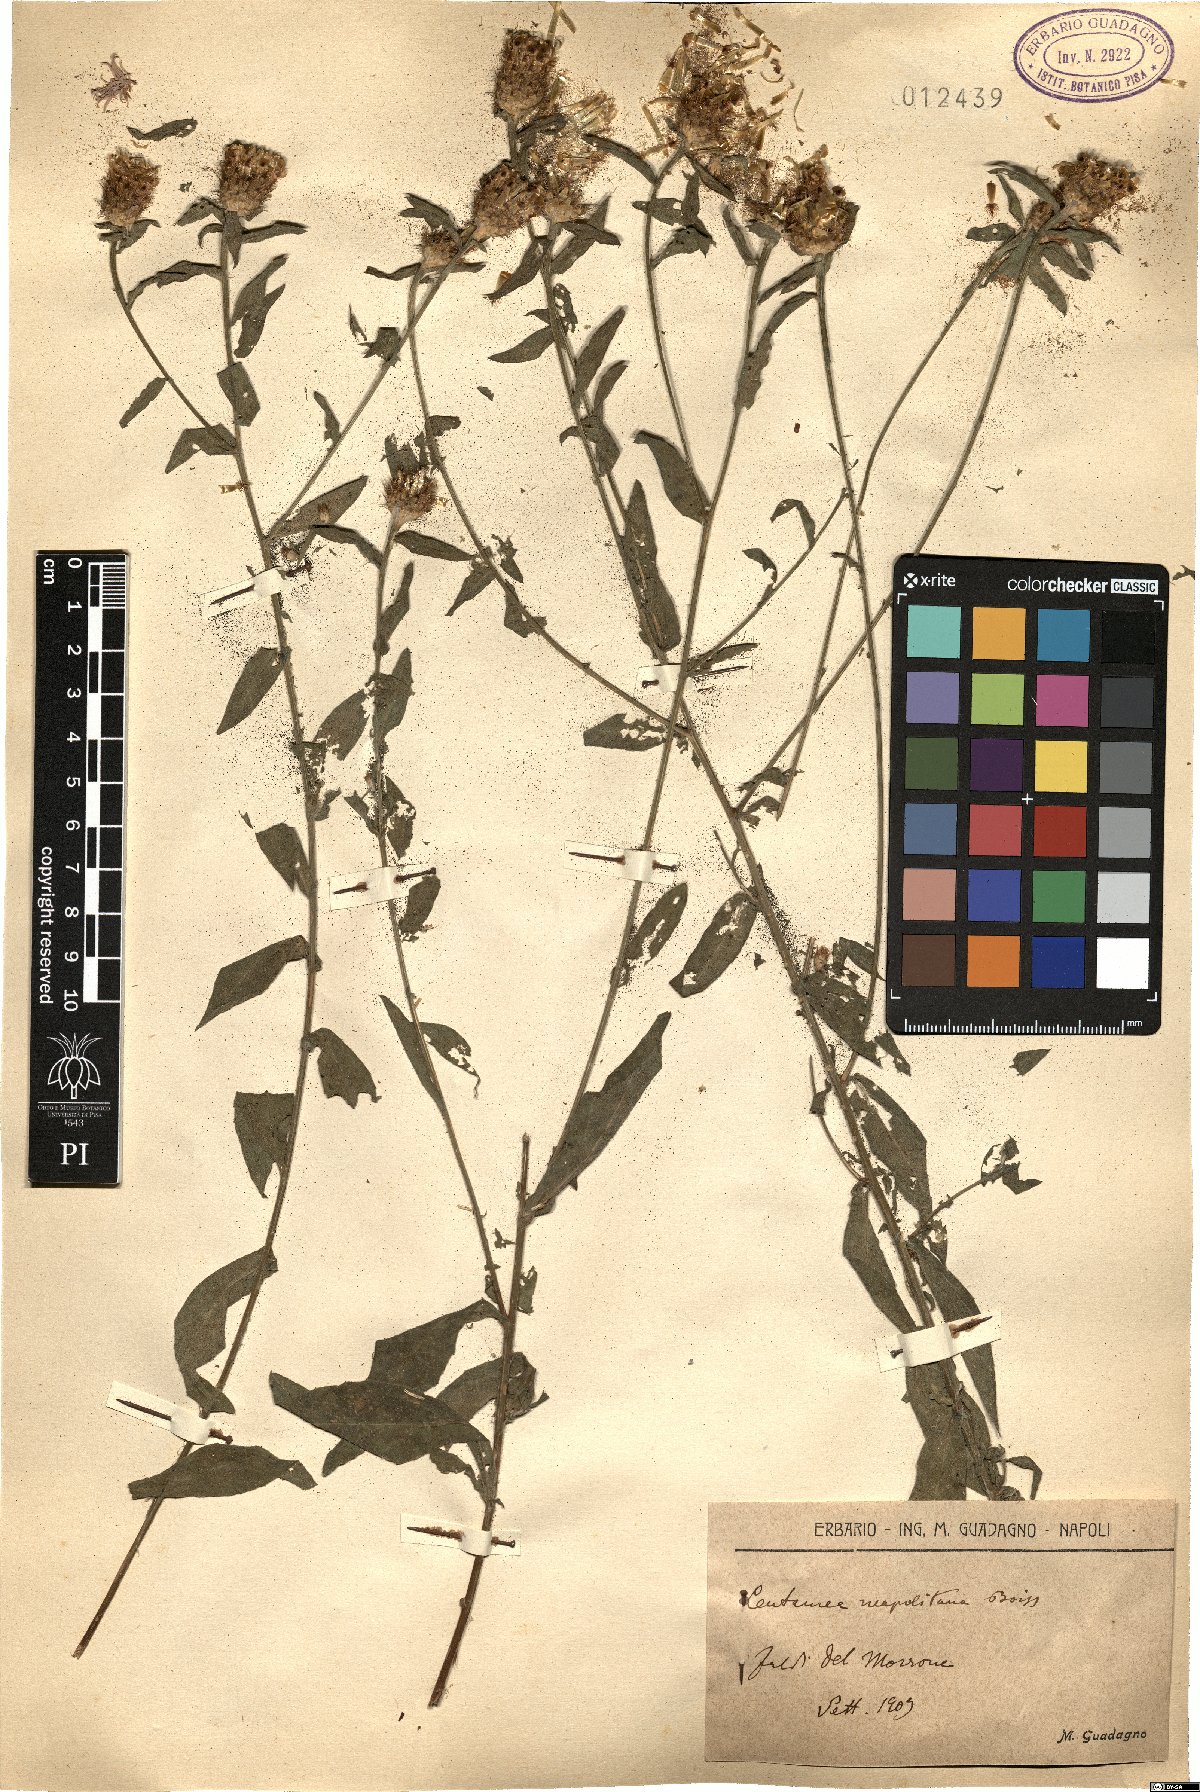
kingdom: Plantae
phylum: Tracheophyta
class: Magnoliopsida
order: Asterales
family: Asteraceae
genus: Centaurea
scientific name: Centaurea nigrescens
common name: Tyrol knapweed
